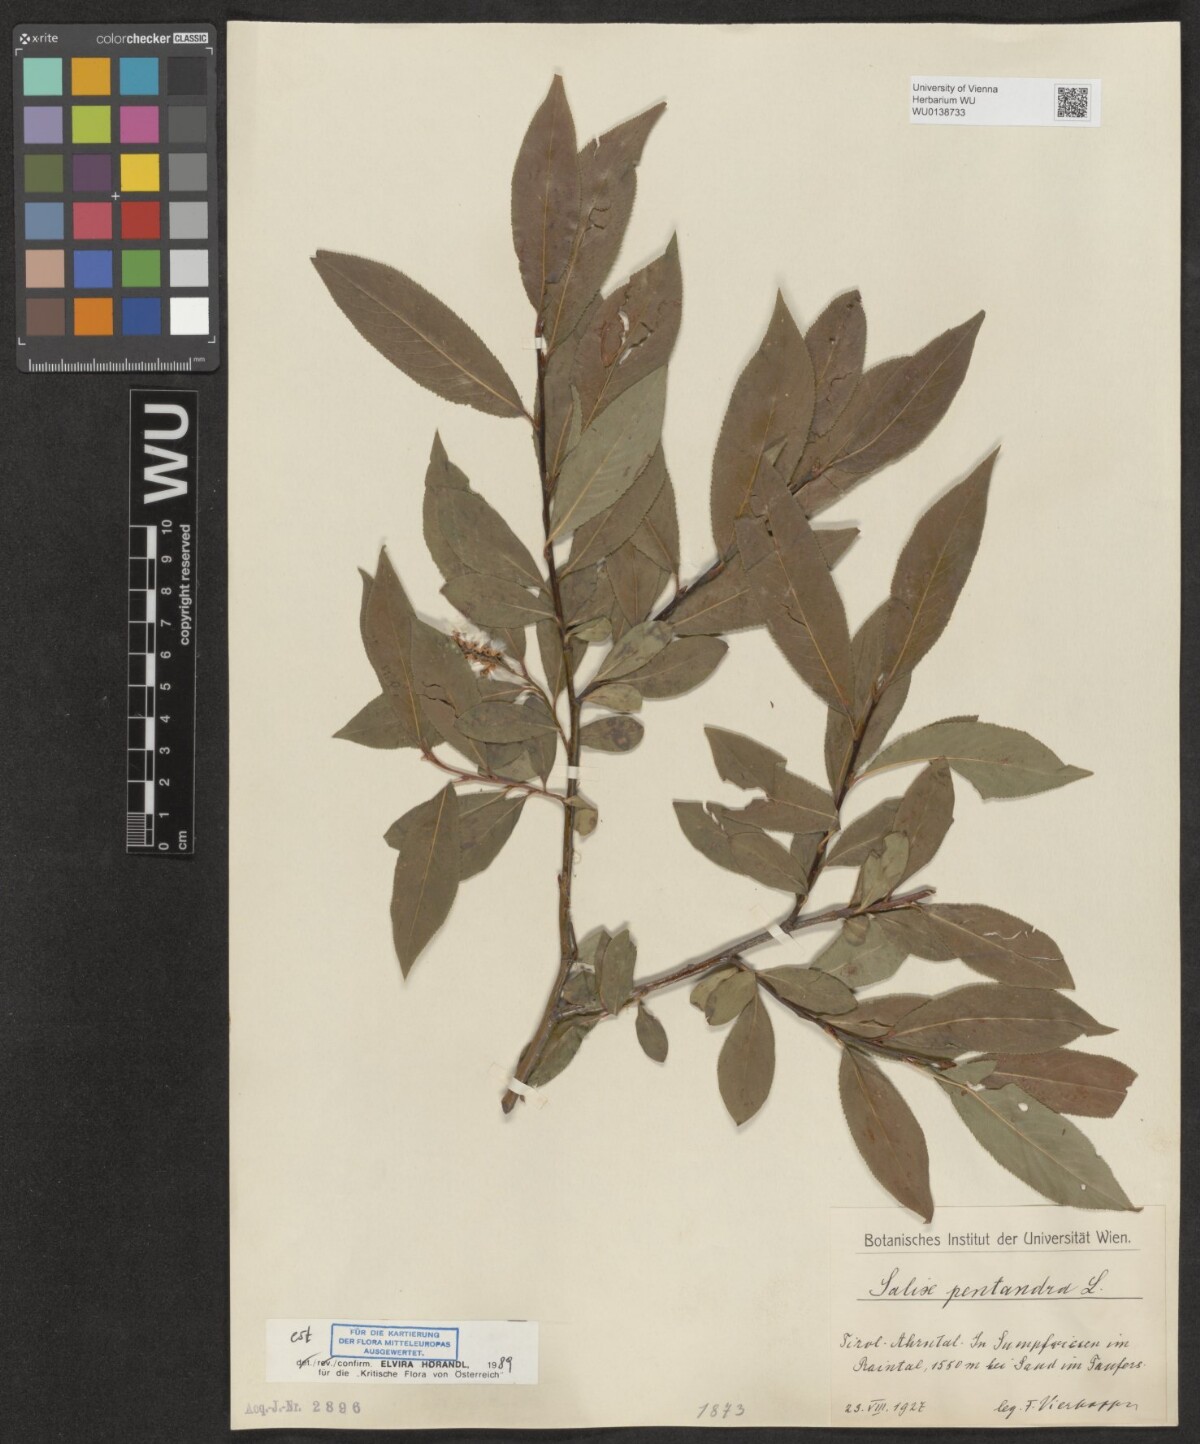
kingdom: Plantae
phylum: Tracheophyta
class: Magnoliopsida
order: Malpighiales
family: Salicaceae
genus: Salix
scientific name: Salix pentandra
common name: Bay willow
